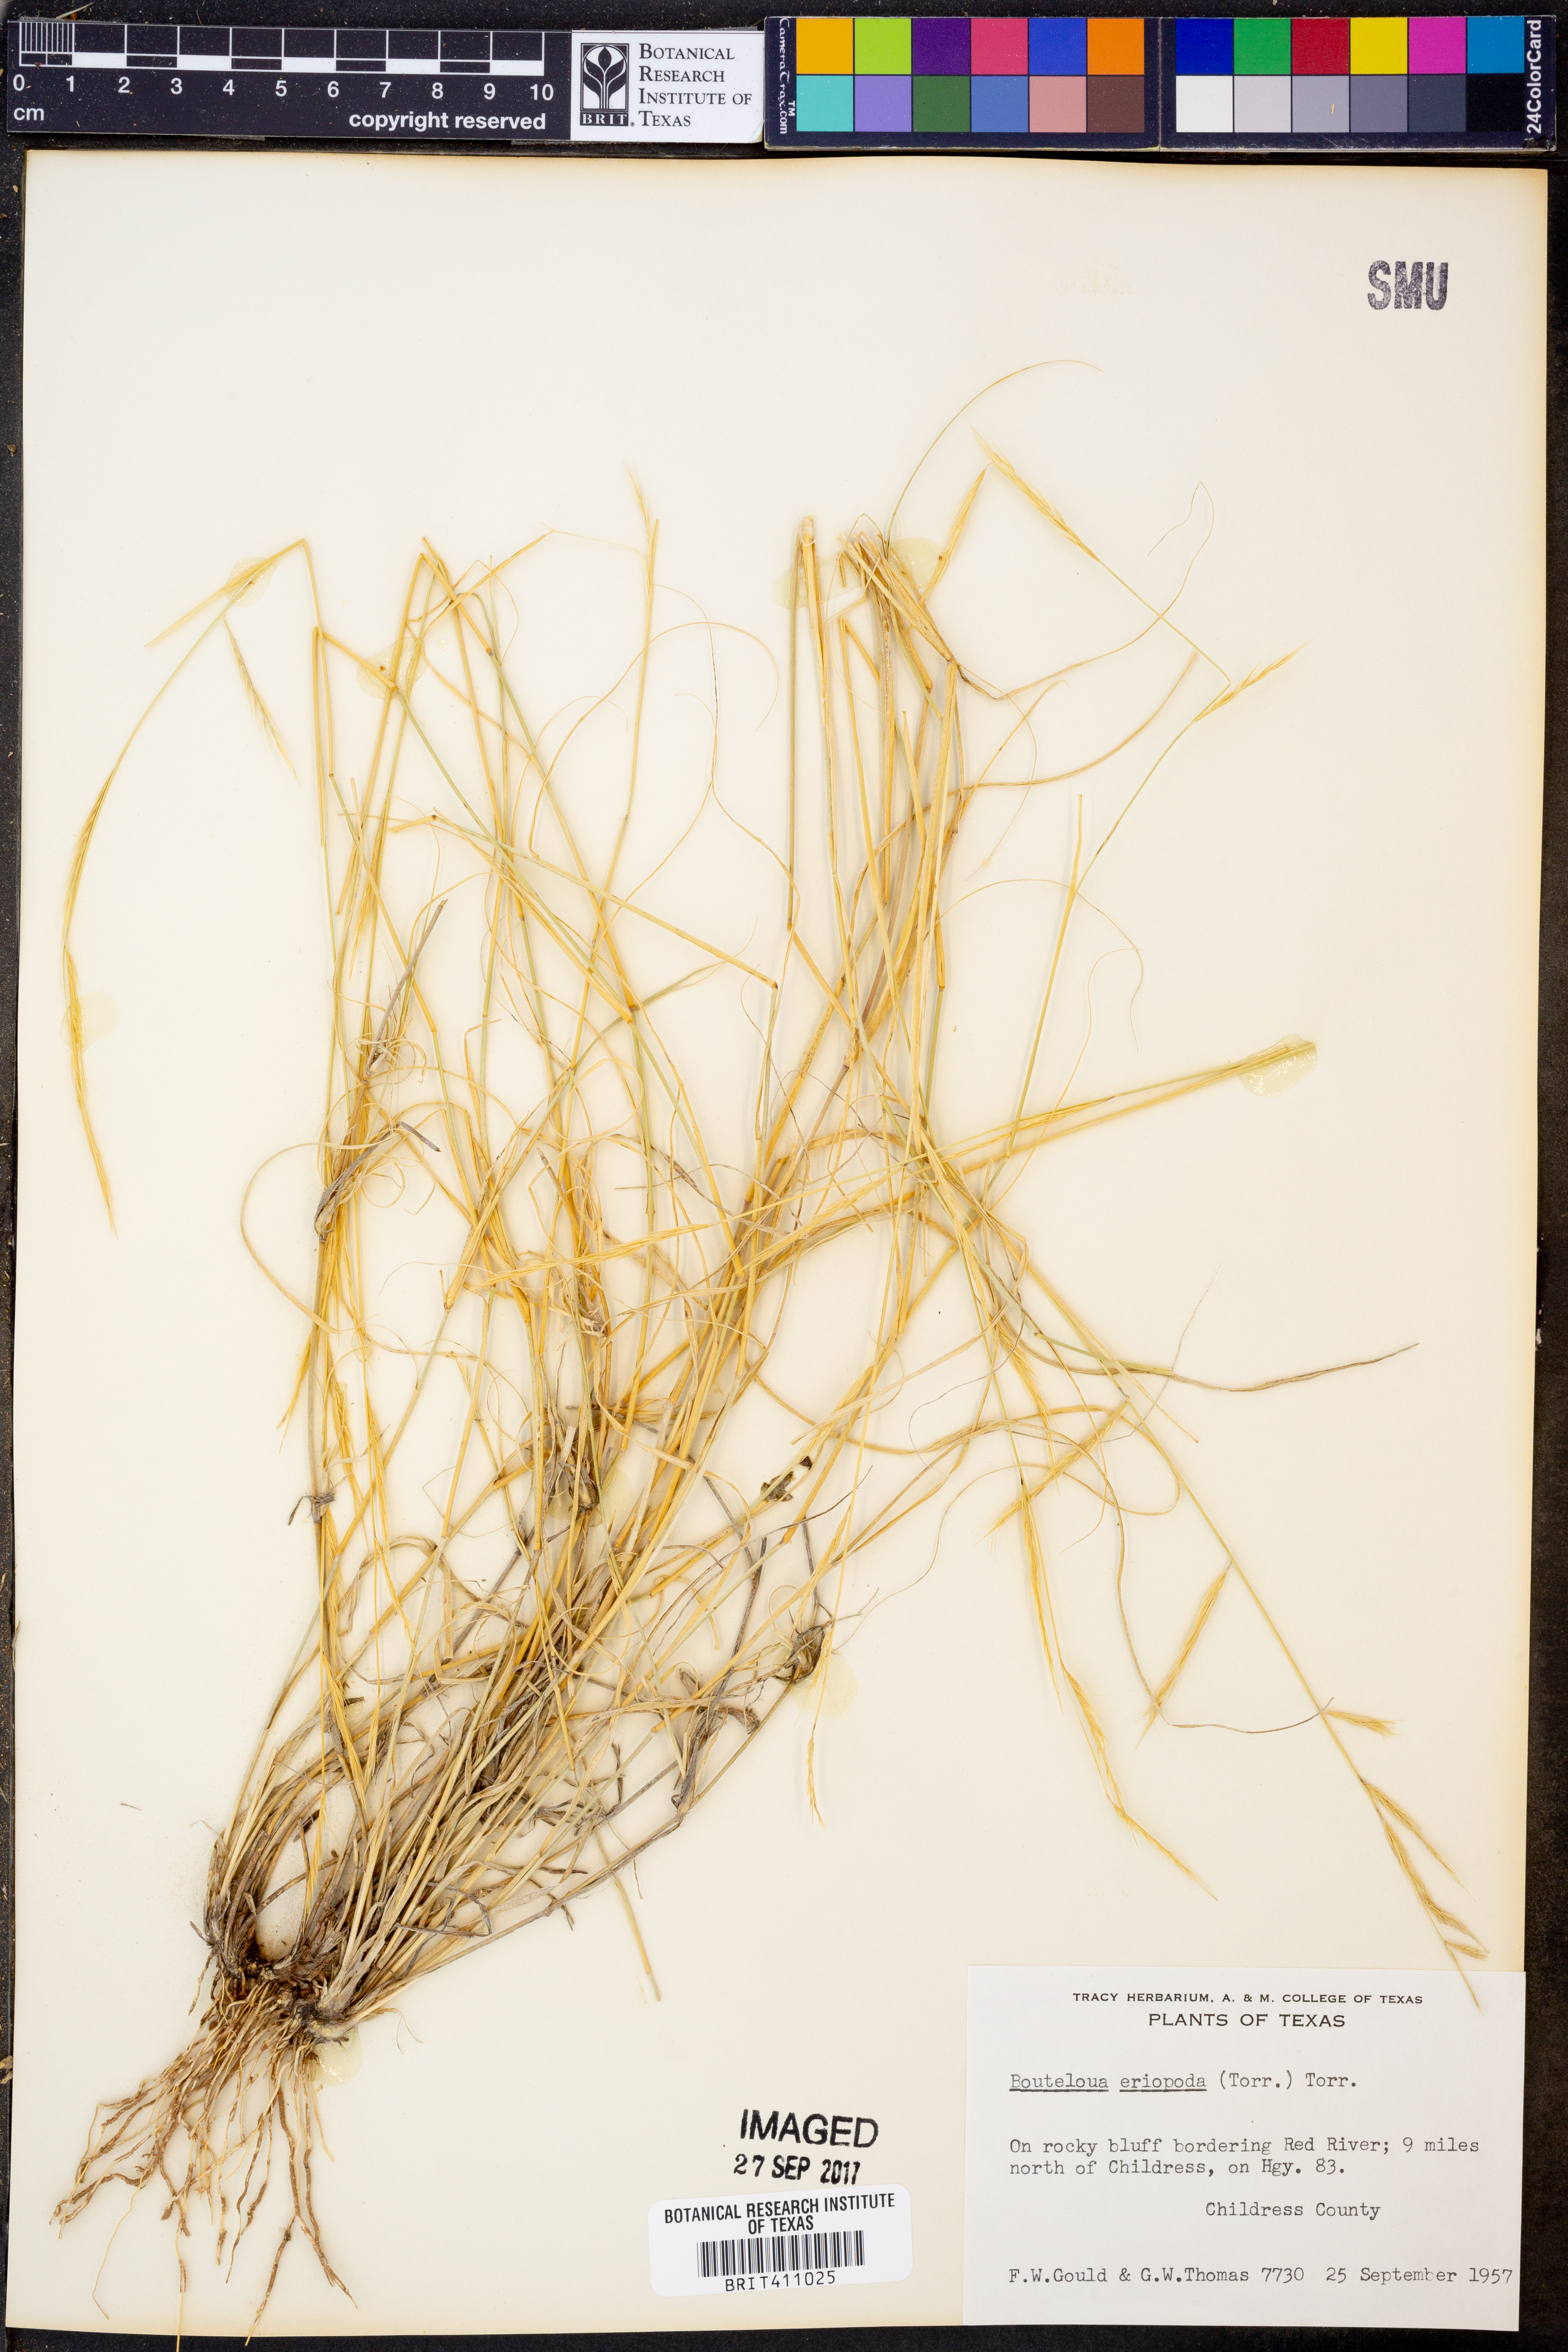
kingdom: Plantae
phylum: Tracheophyta
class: Liliopsida
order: Poales
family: Poaceae
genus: Bouteloua
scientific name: Bouteloua eriopoda
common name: Woolly foot grama
